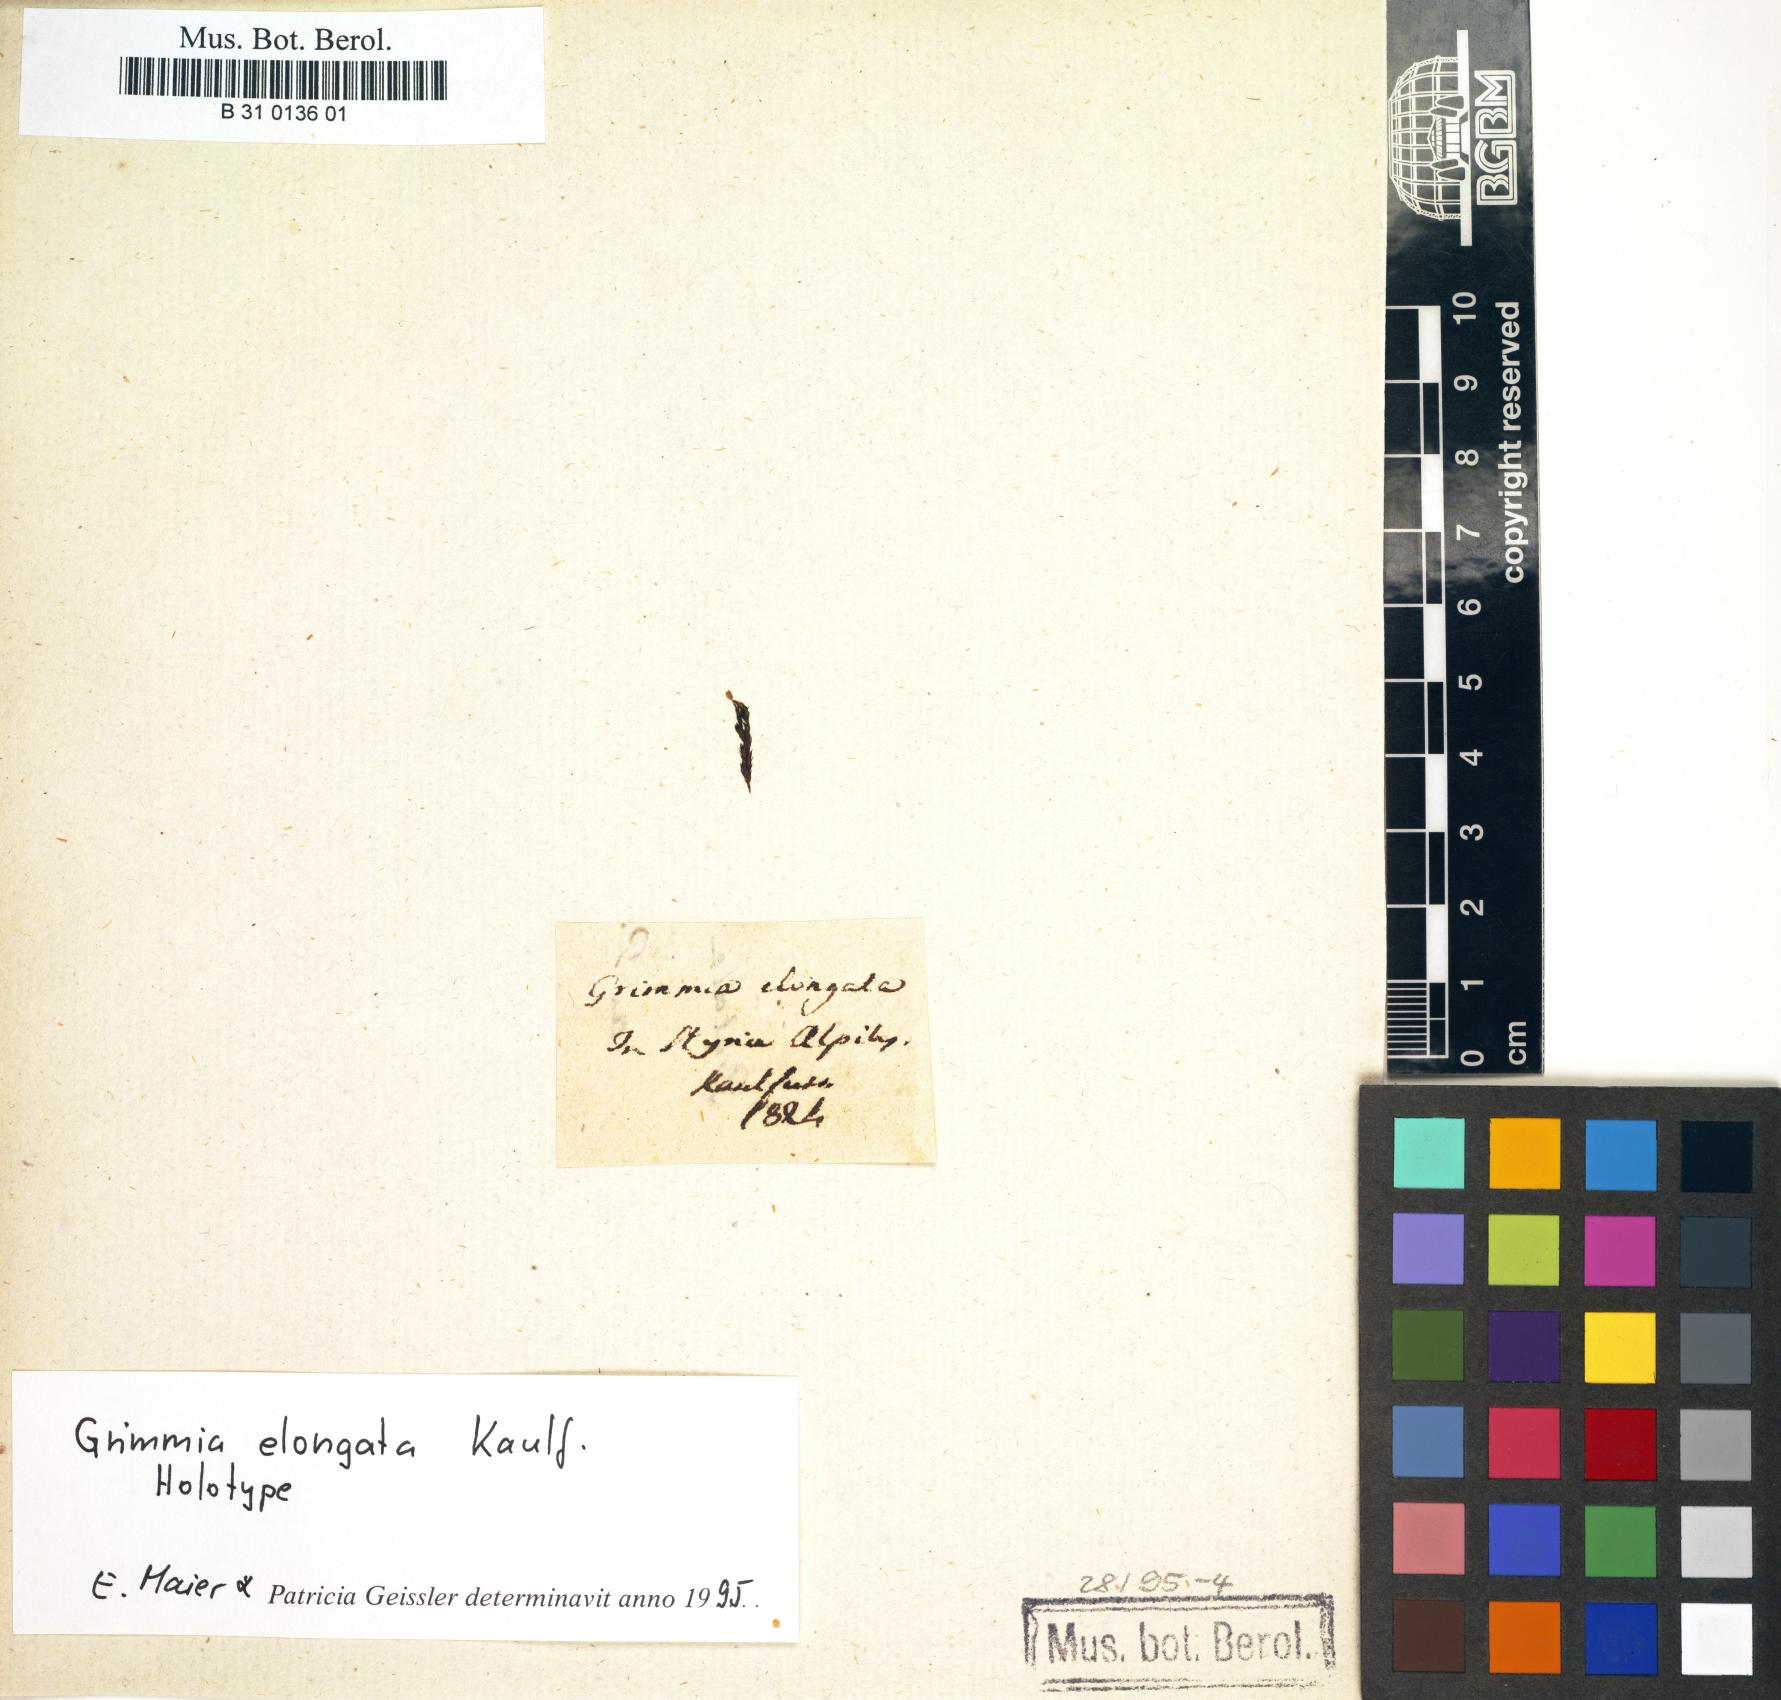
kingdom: Plantae
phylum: Bryophyta
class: Bryopsida
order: Grimmiales
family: Grimmiaceae
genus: Grimmia
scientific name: Grimmia elongata
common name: Brown grimmia
